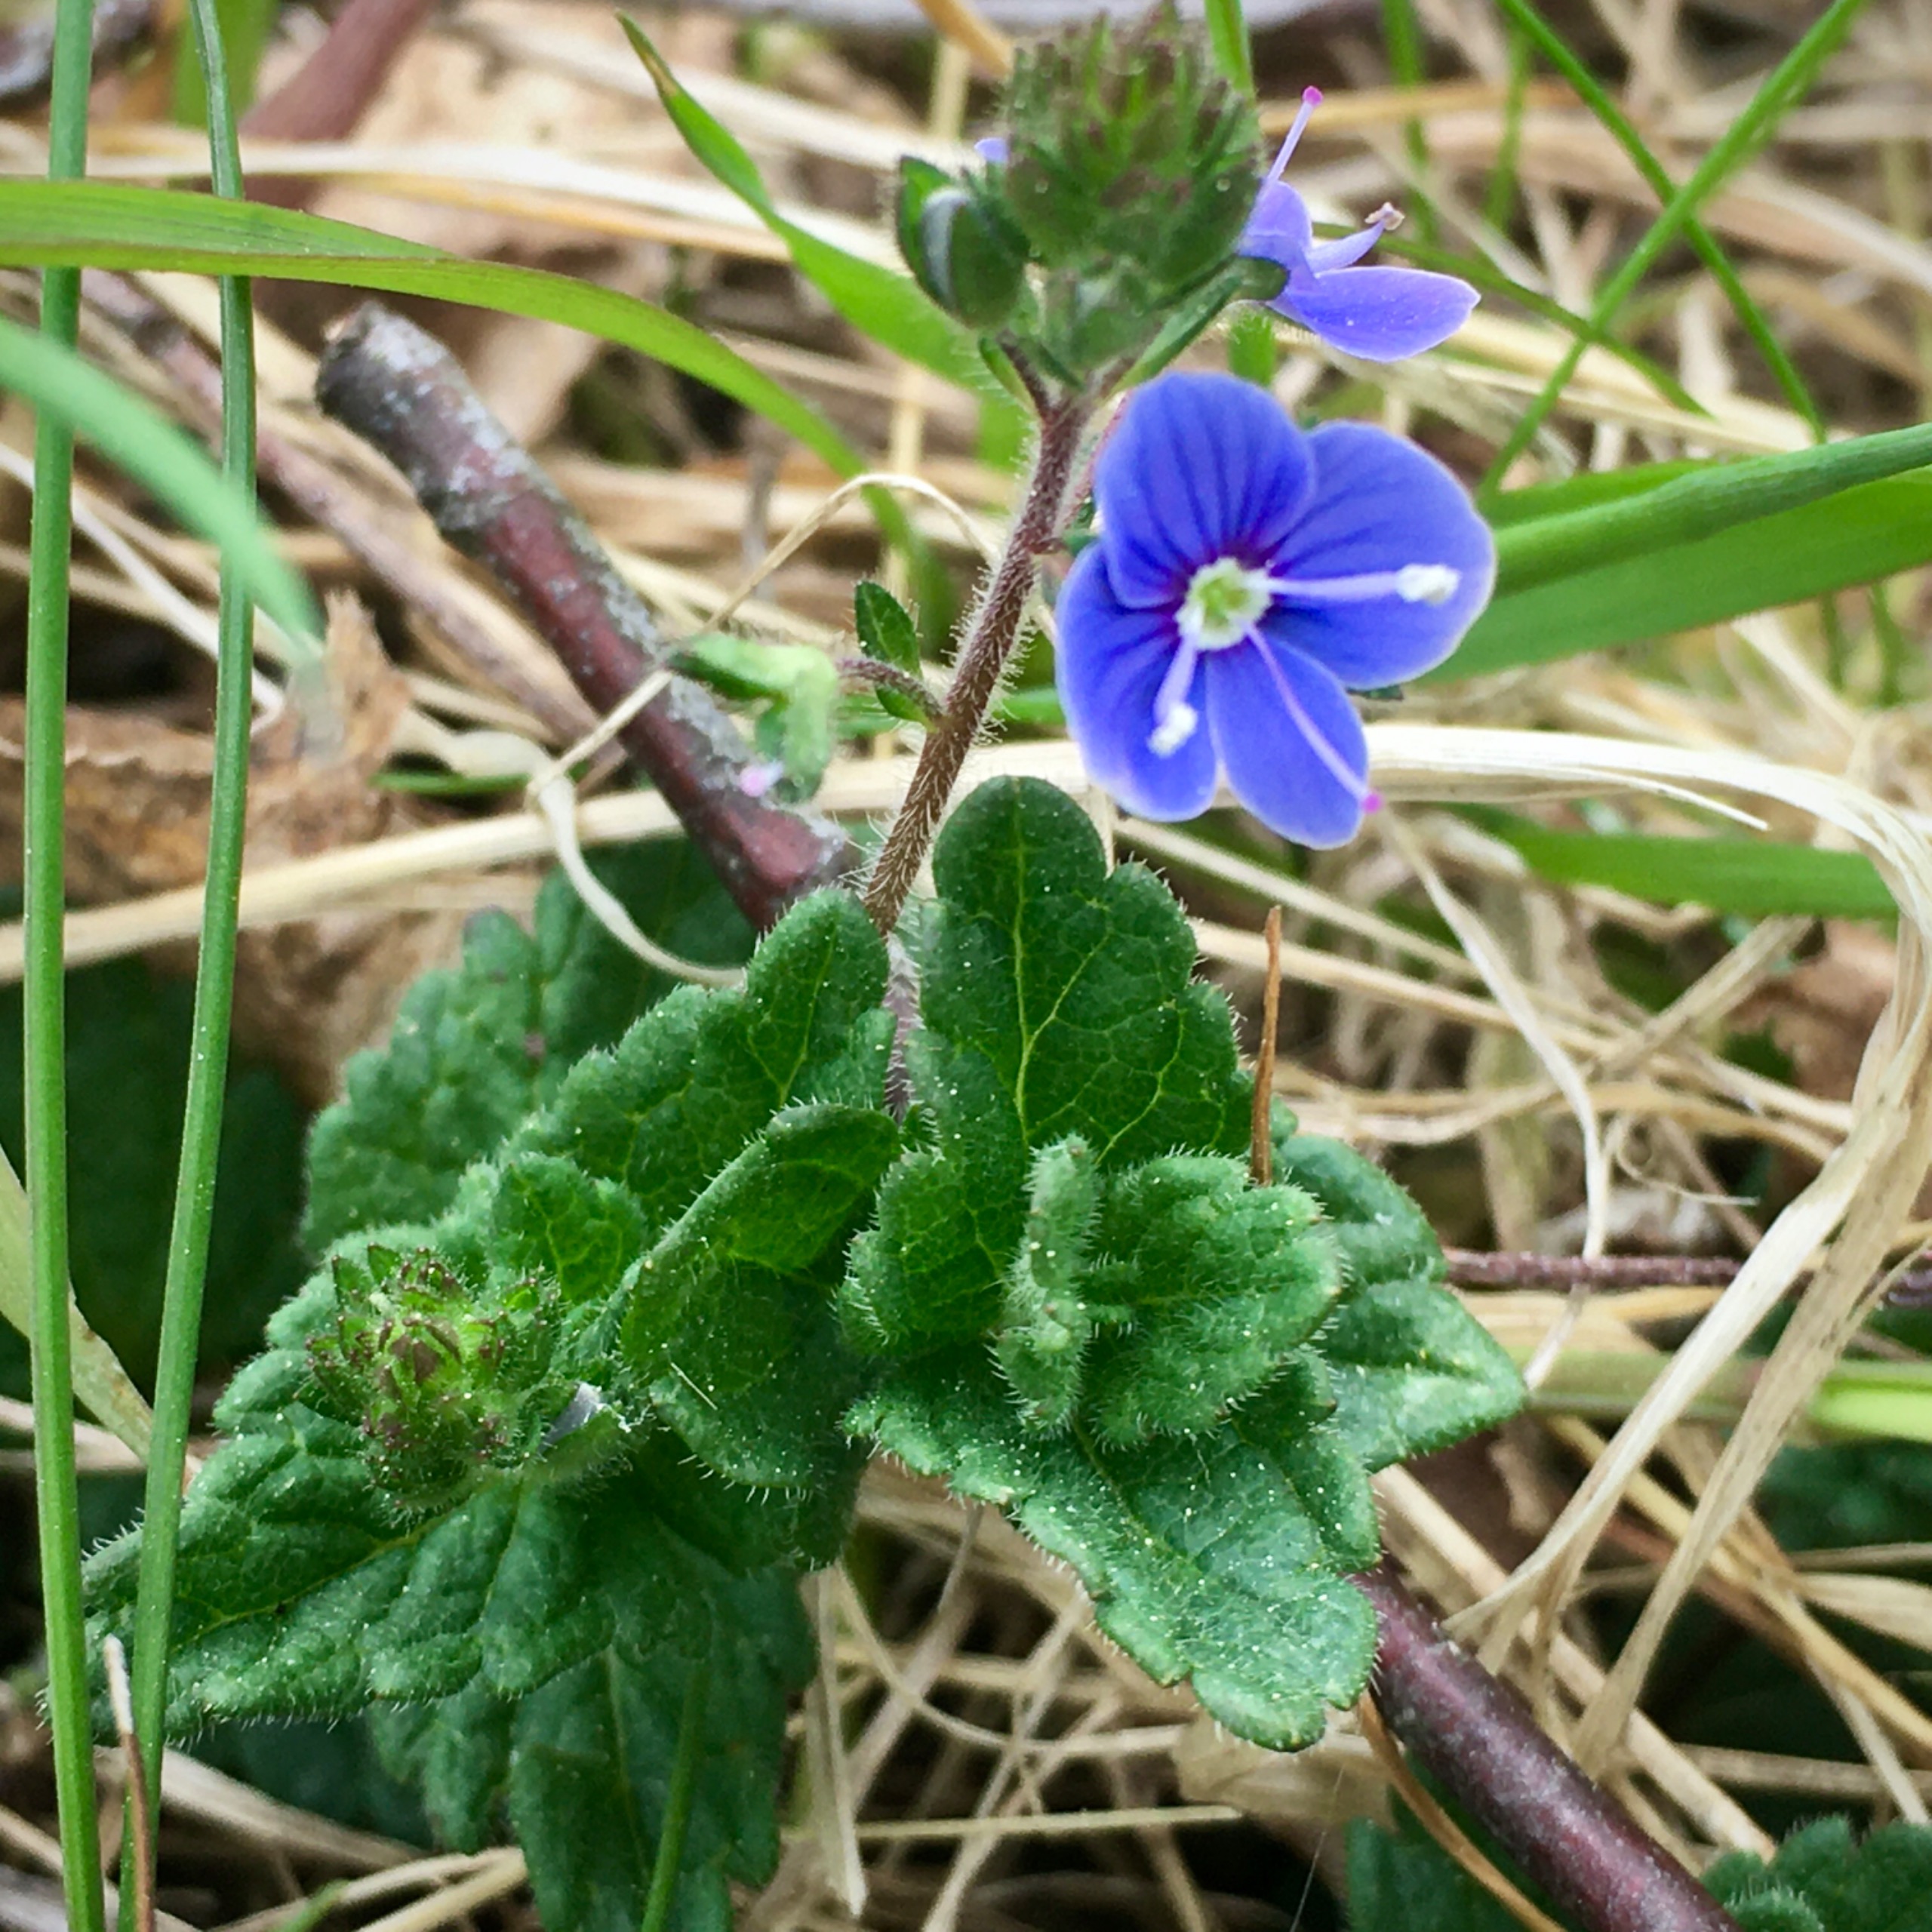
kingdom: Plantae
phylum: Tracheophyta
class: Magnoliopsida
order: Lamiales
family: Plantaginaceae
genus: Veronica
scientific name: Veronica chamaedrys
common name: Tveskægget ærenpris
